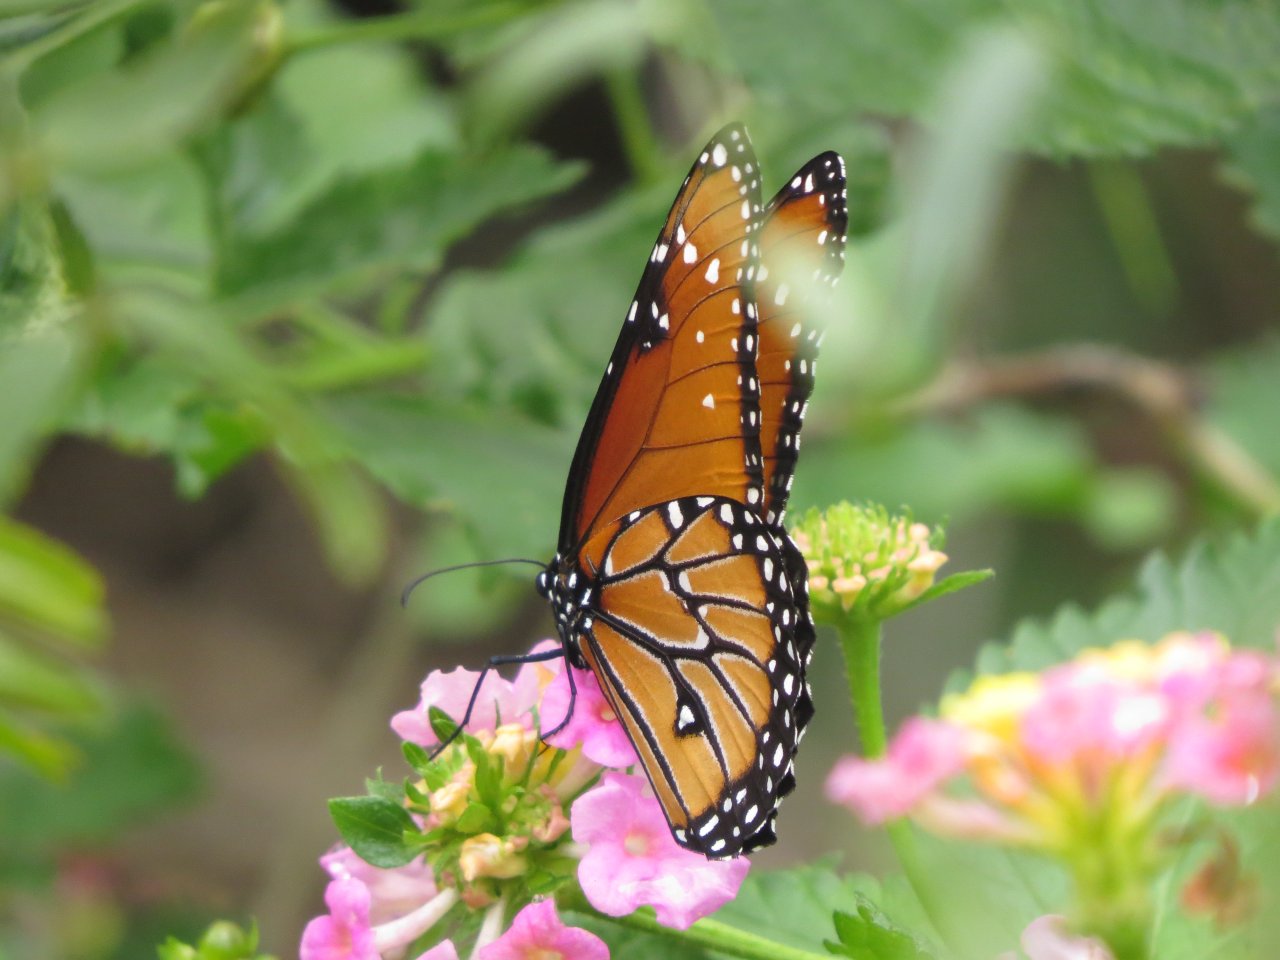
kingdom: Animalia
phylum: Arthropoda
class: Insecta
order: Lepidoptera
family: Nymphalidae
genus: Danaus
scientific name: Danaus gilippus
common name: Queen
